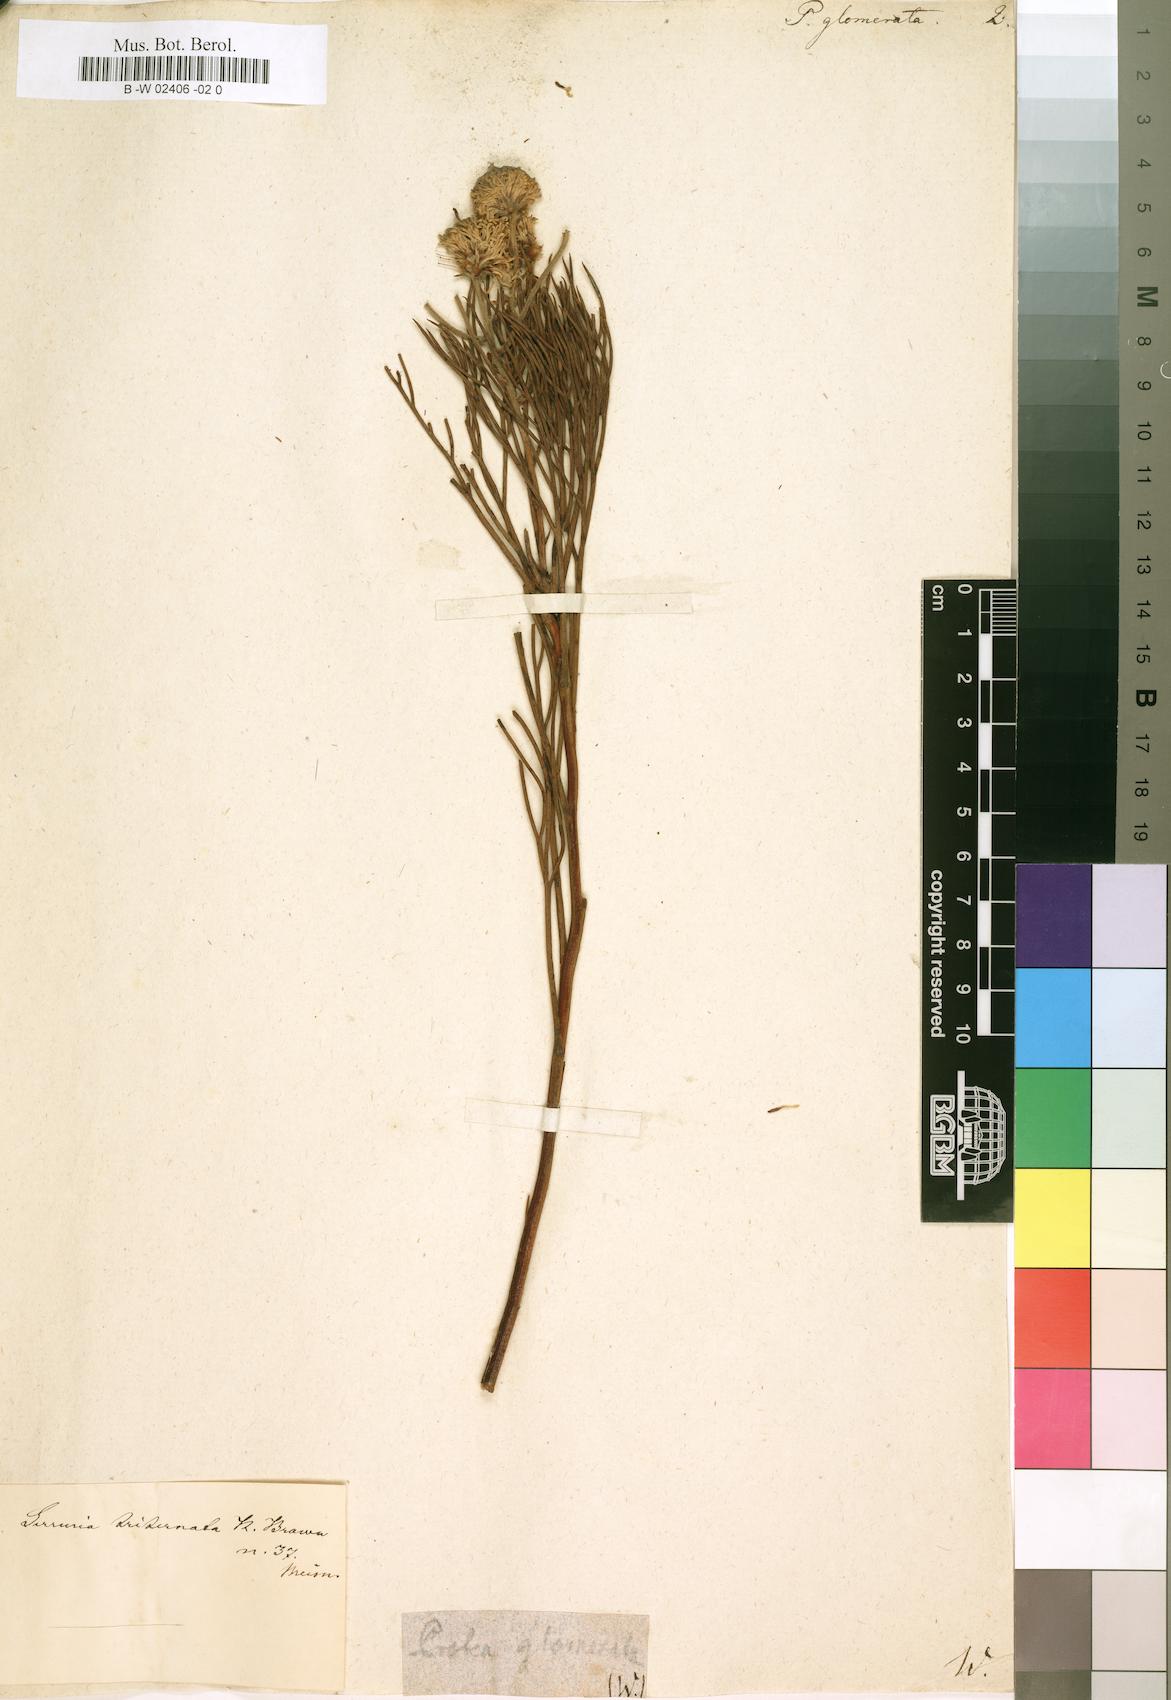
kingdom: Plantae
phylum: Tracheophyta
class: Magnoliopsida
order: Proteales
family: Proteaceae
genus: Serruria
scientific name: Serruria
